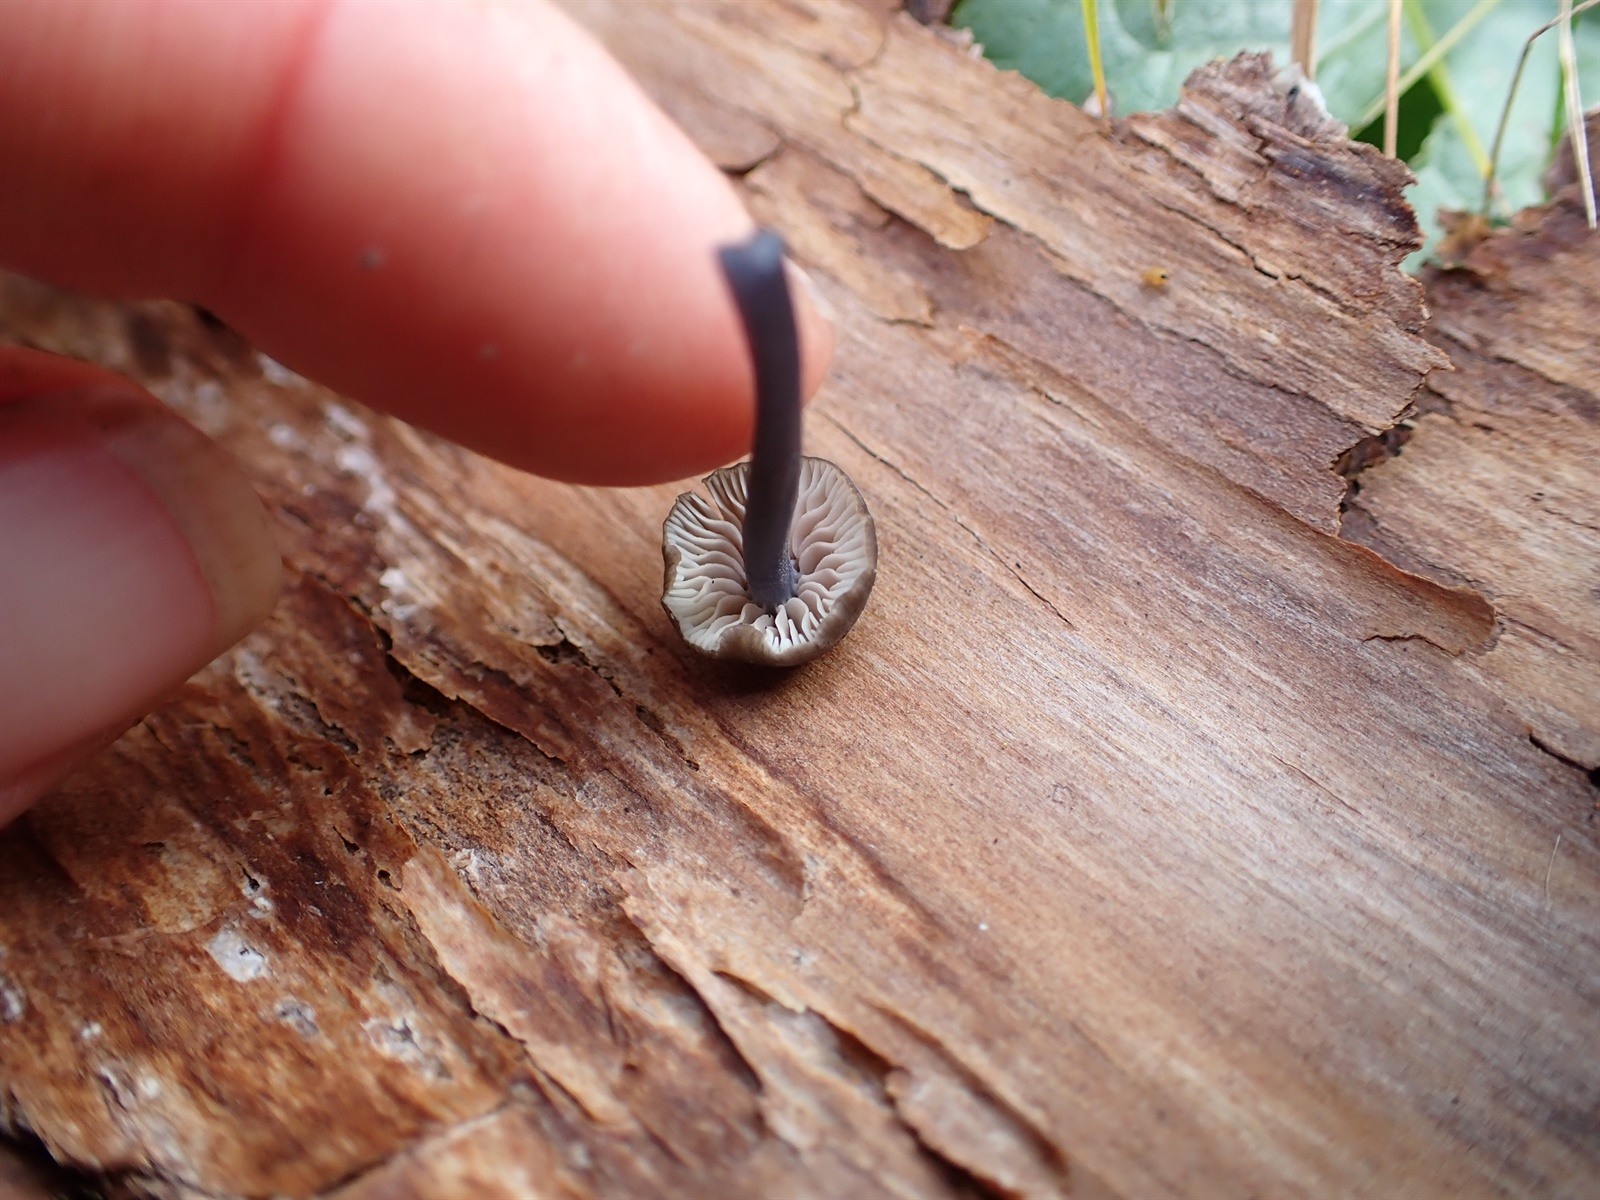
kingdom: Fungi
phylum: Basidiomycota
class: Agaricomycetes
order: Agaricales
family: Entolomataceae
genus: Entoloma
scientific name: Entoloma
